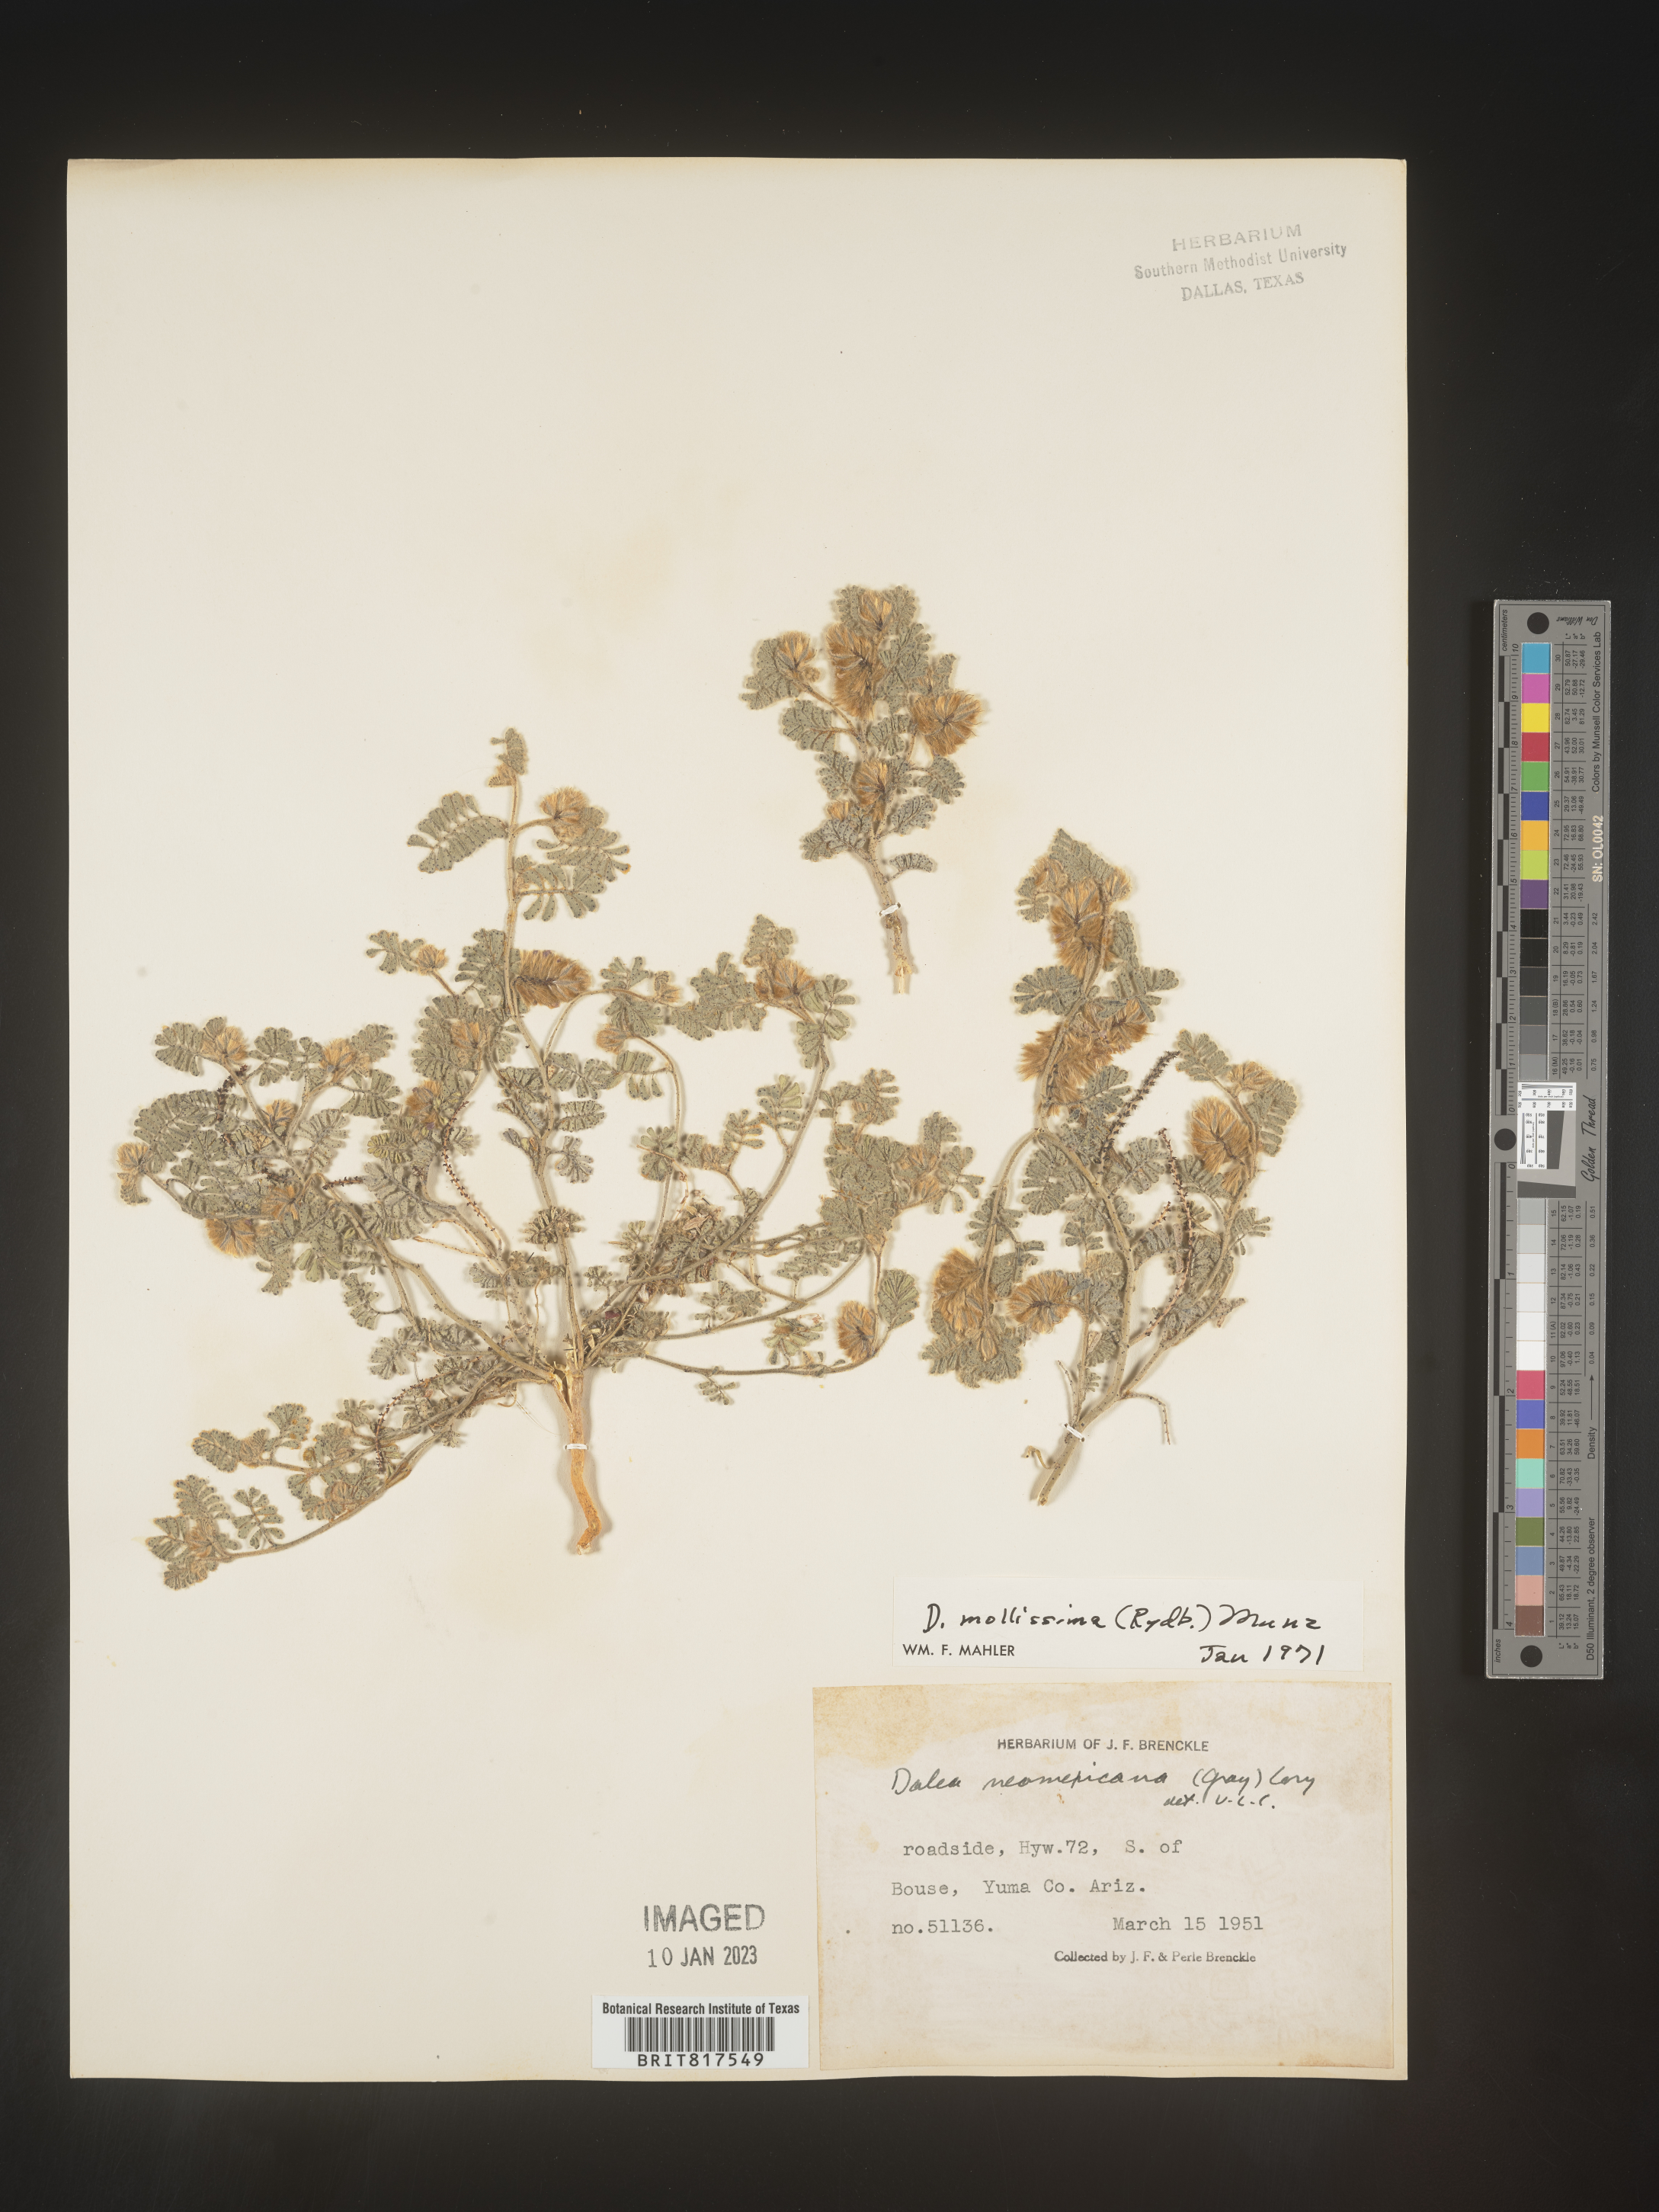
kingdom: Plantae
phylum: Tracheophyta
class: Magnoliopsida
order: Fabales
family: Fabaceae
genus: Dalea
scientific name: Dalea leporina
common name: Foxtail dalea
